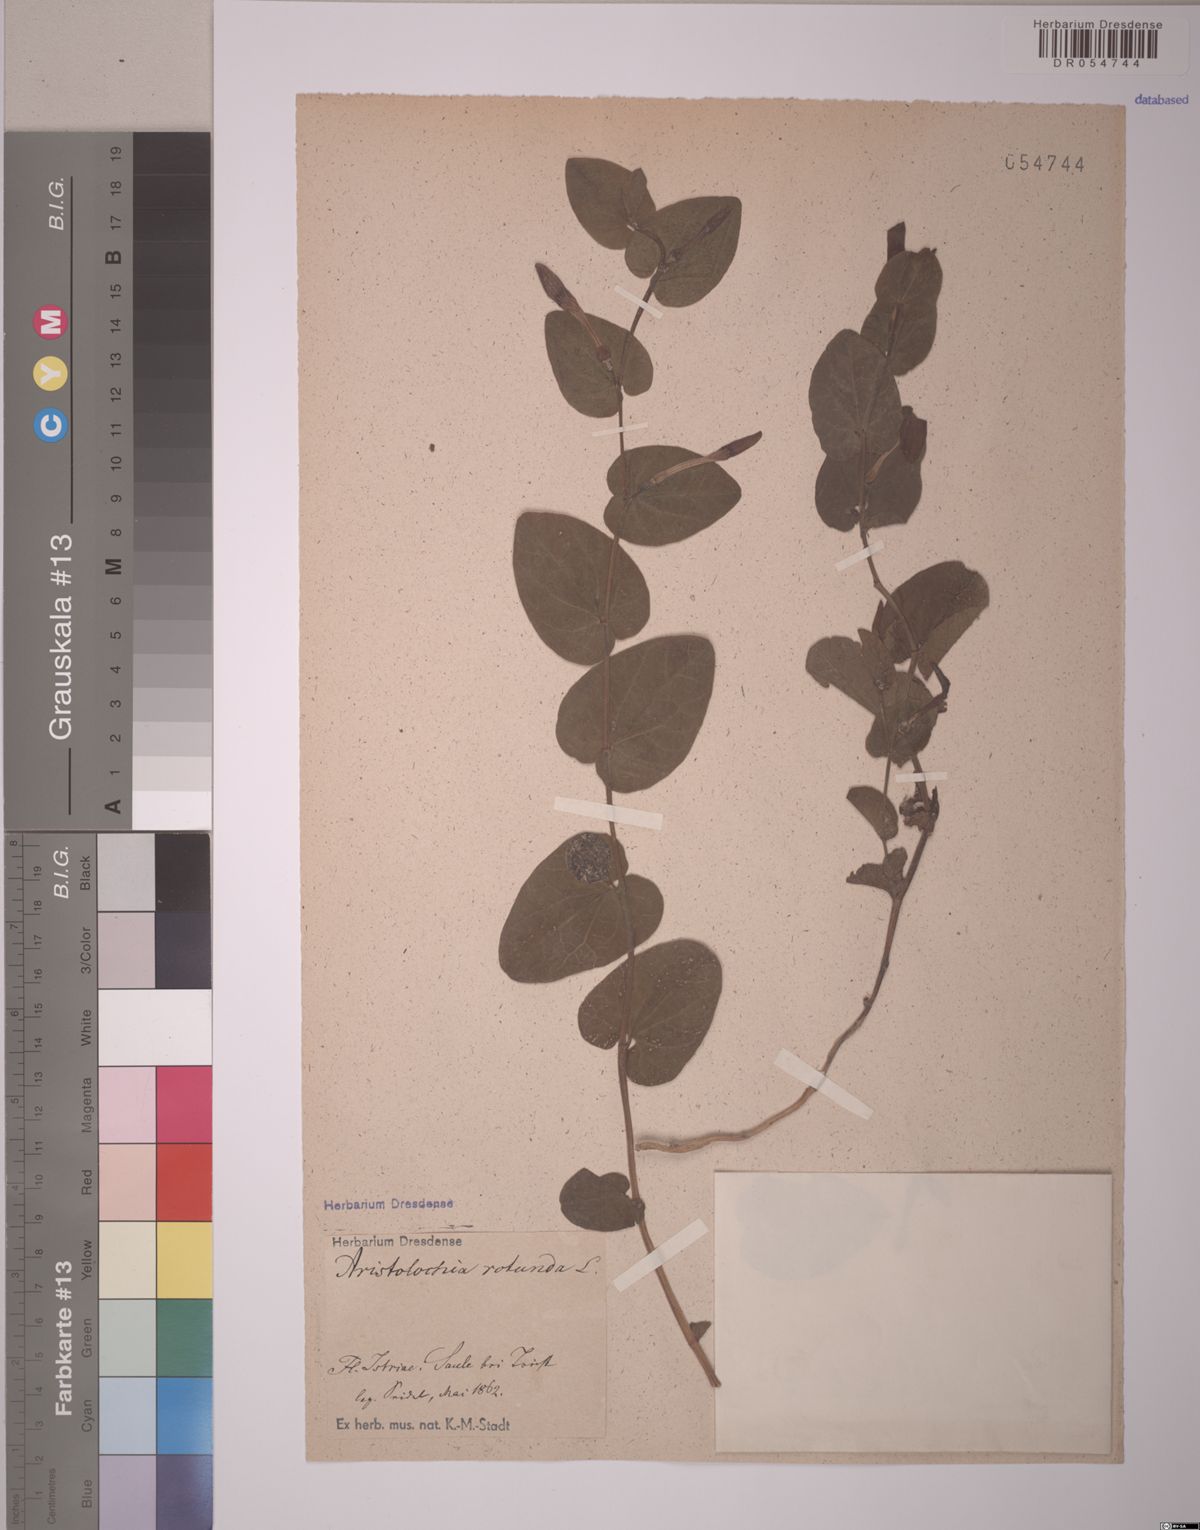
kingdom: Plantae
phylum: Tracheophyta
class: Magnoliopsida
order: Piperales
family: Aristolochiaceae
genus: Aristolochia
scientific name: Aristolochia rotunda
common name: Smearwort
